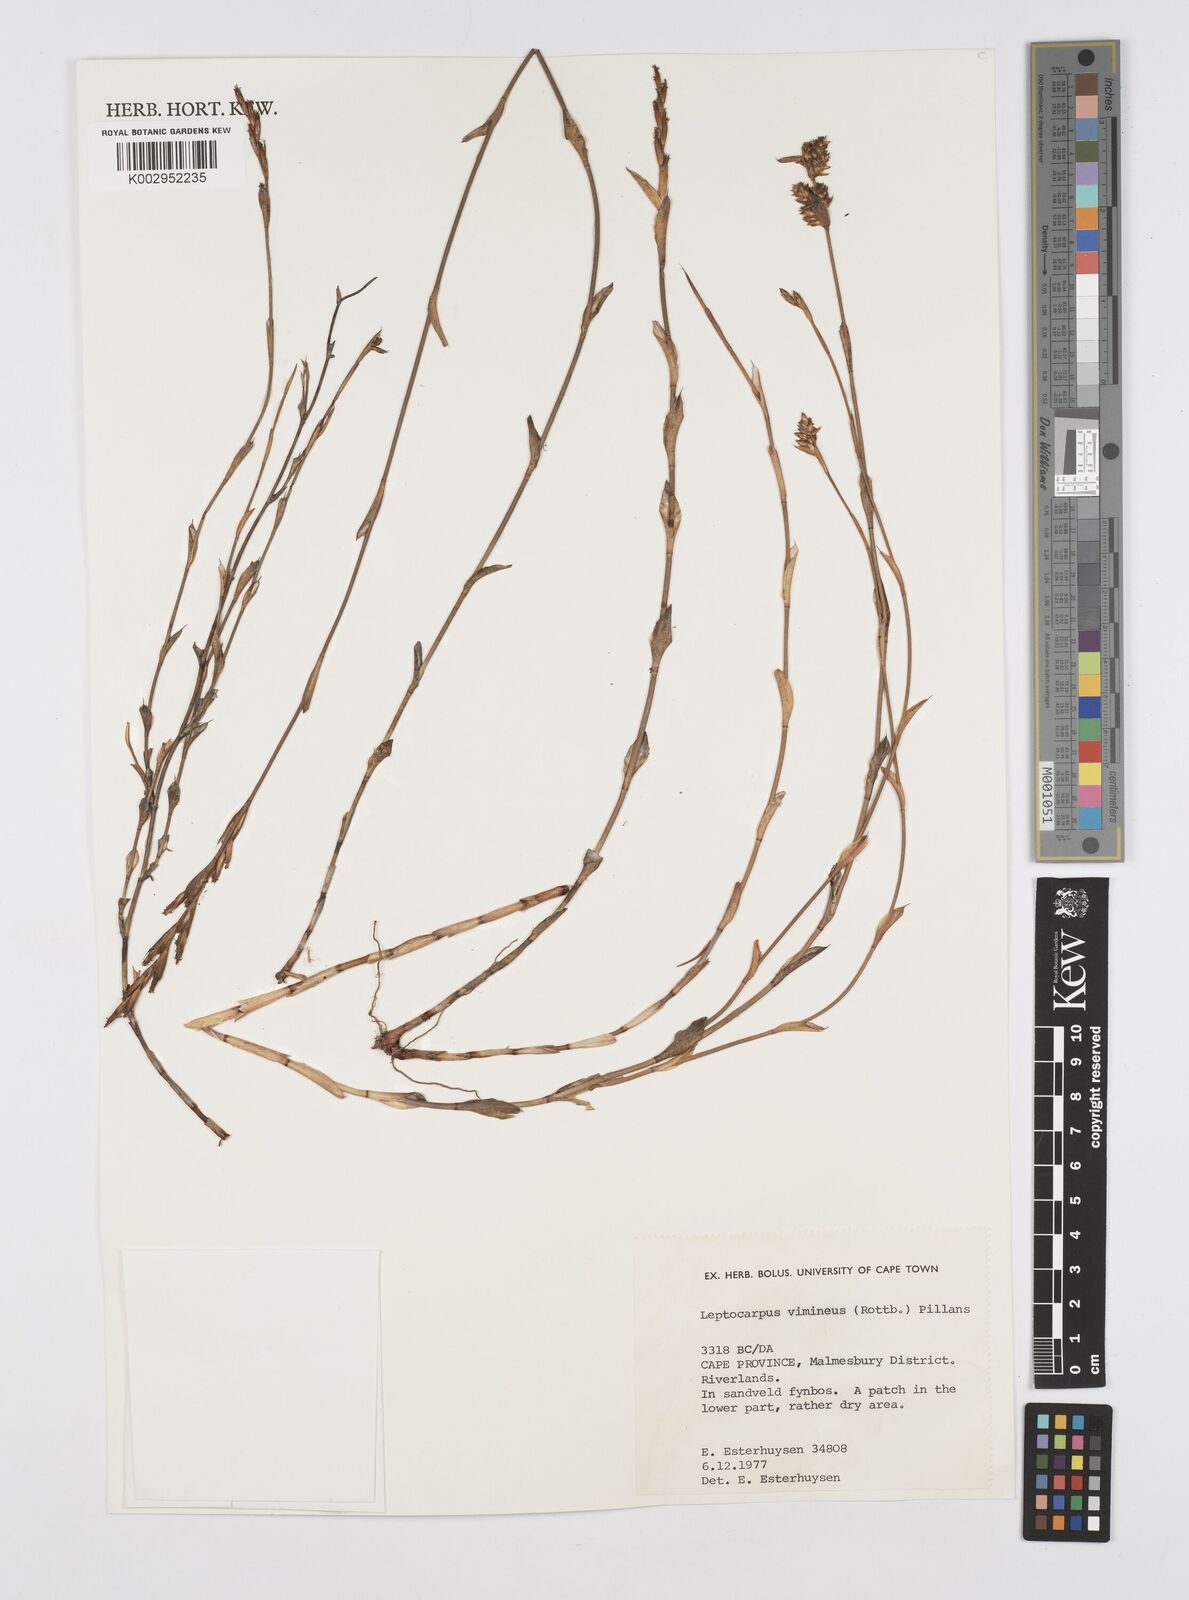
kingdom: Plantae
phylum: Tracheophyta
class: Liliopsida
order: Poales
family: Restionaceae
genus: Restio
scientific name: Restio vimineus
